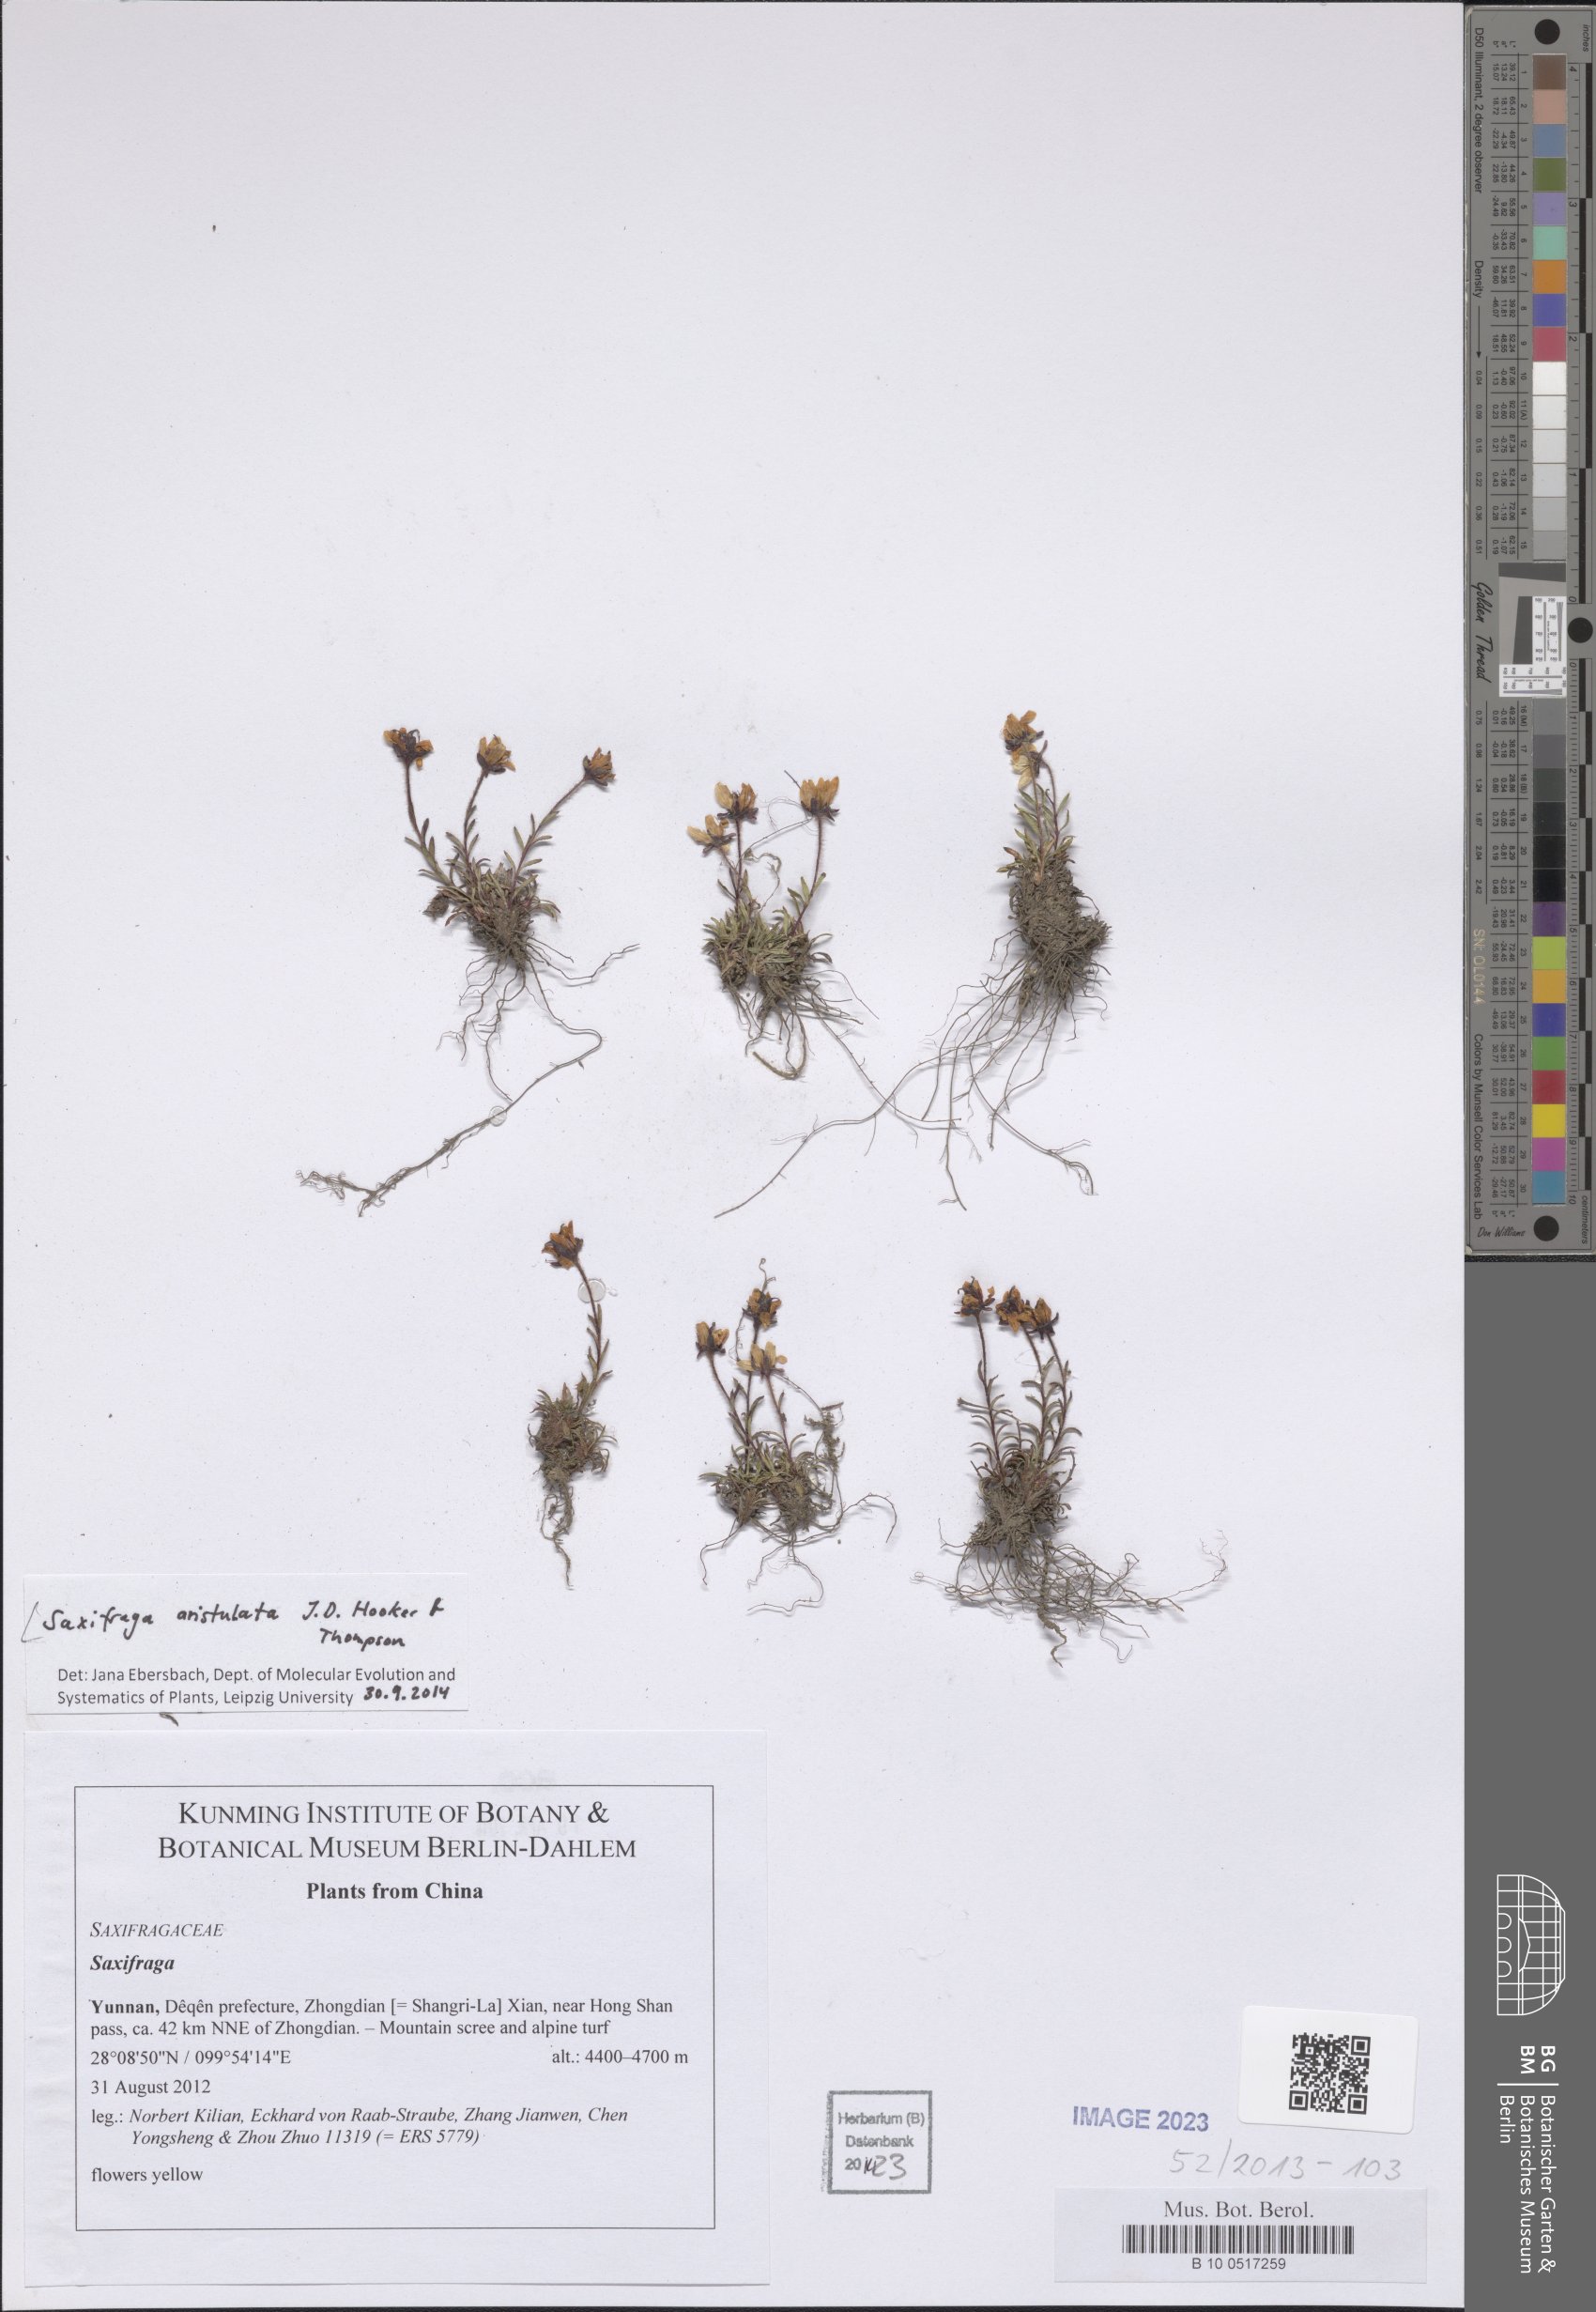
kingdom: Plantae
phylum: Tracheophyta
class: Magnoliopsida
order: Saxifragales
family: Saxifragaceae
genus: Saxifraga
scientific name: Saxifraga aristulata
